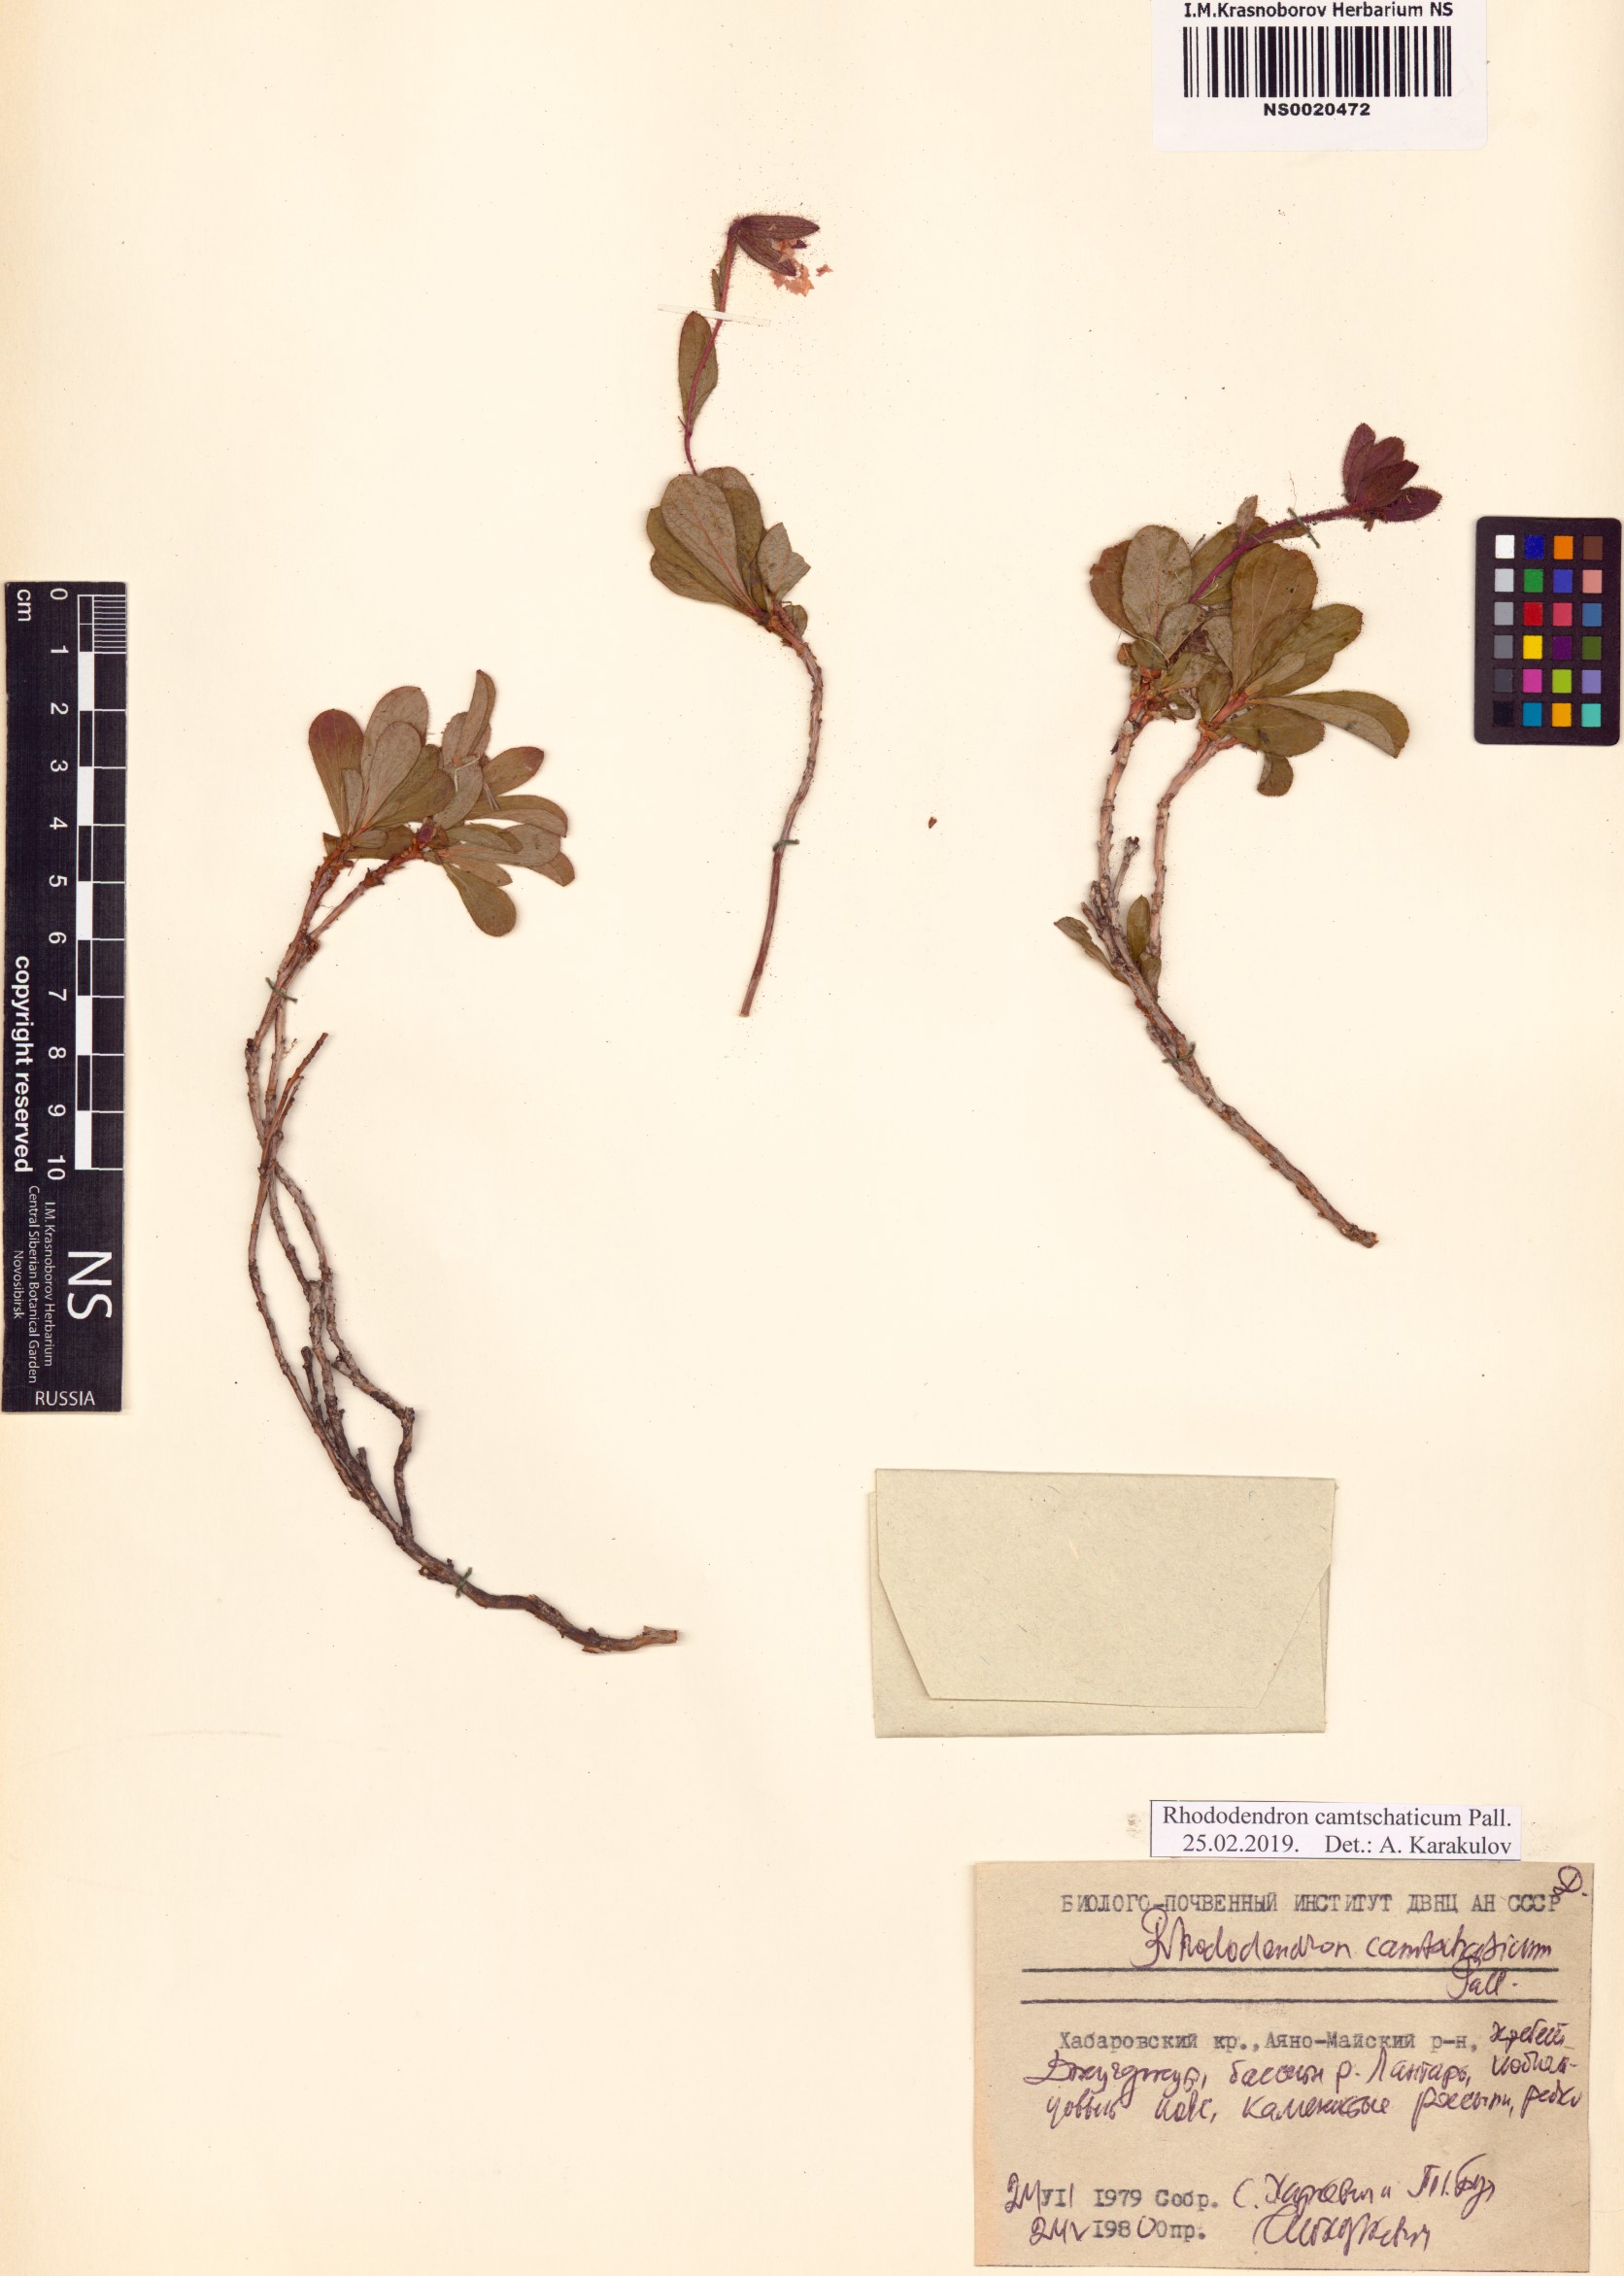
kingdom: Plantae
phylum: Tracheophyta
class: Magnoliopsida
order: Ericales
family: Ericaceae
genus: Rhododendron
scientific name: Rhododendron camtschaticum
